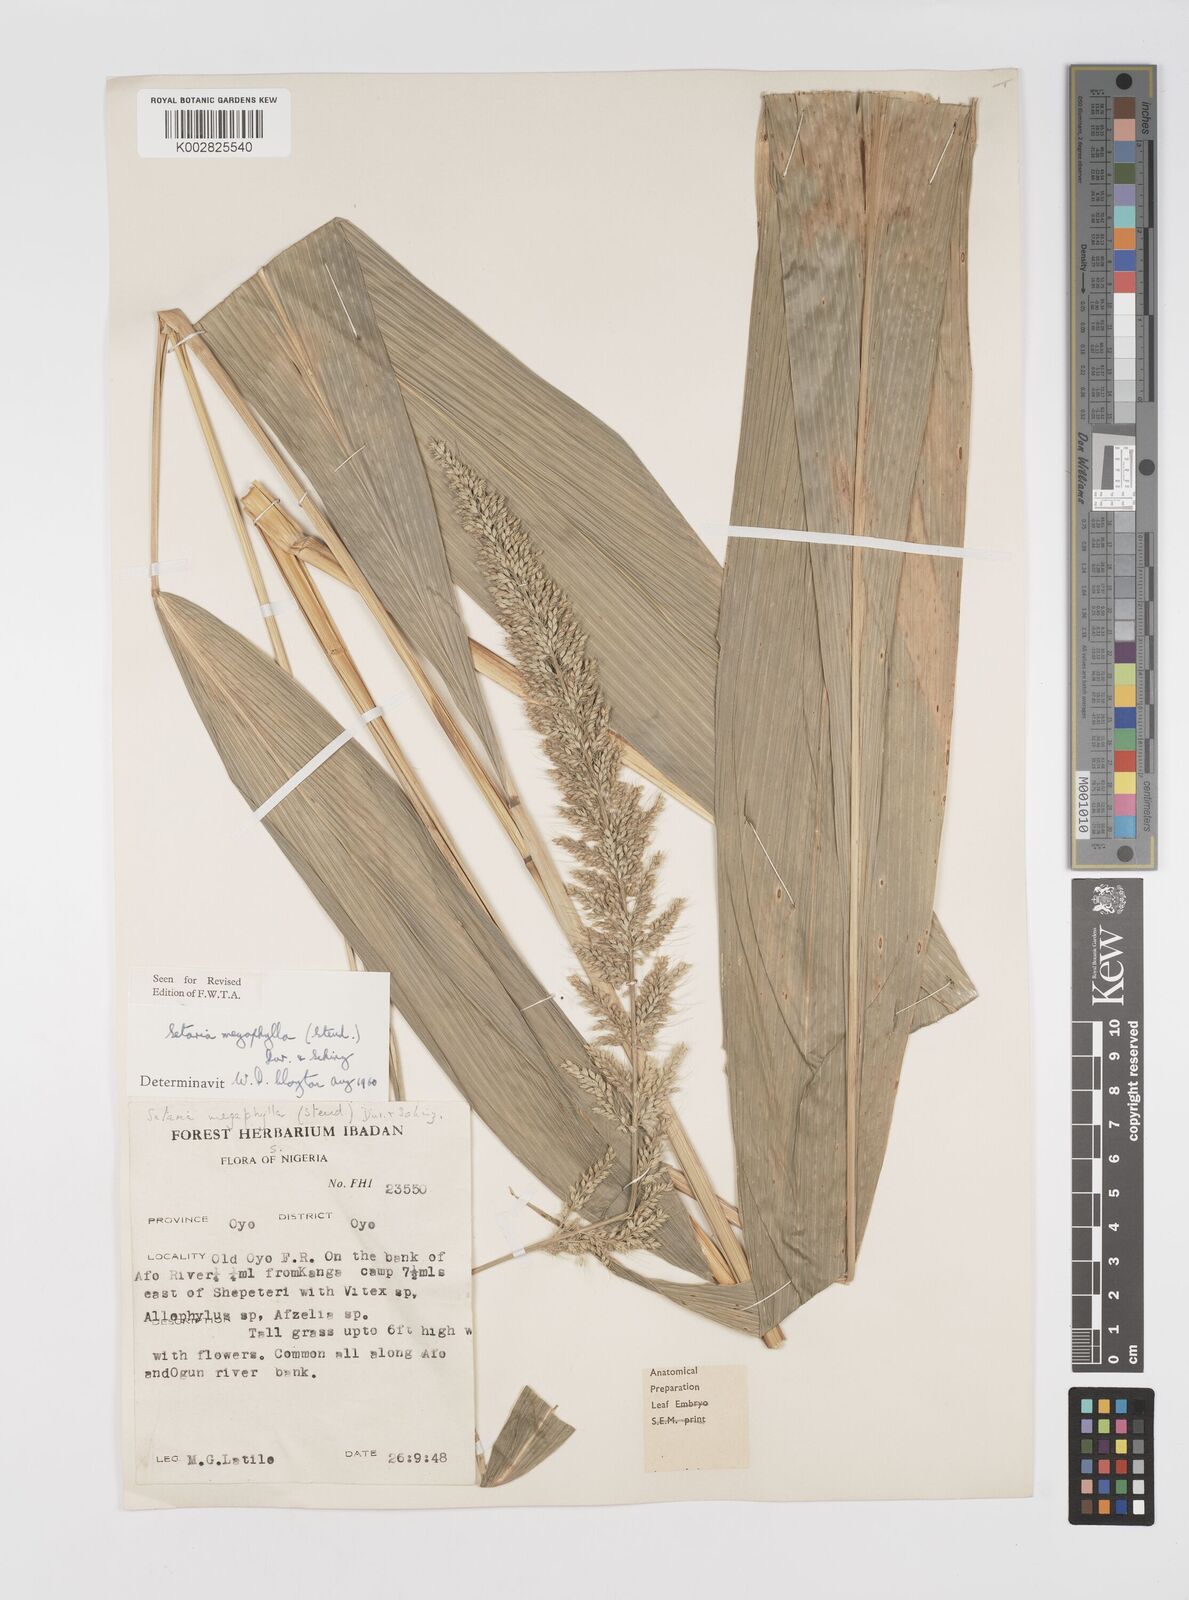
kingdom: Plantae
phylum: Tracheophyta
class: Liliopsida
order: Poales
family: Poaceae
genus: Setaria
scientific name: Setaria megaphylla
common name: Bigleaf bristlegrass
